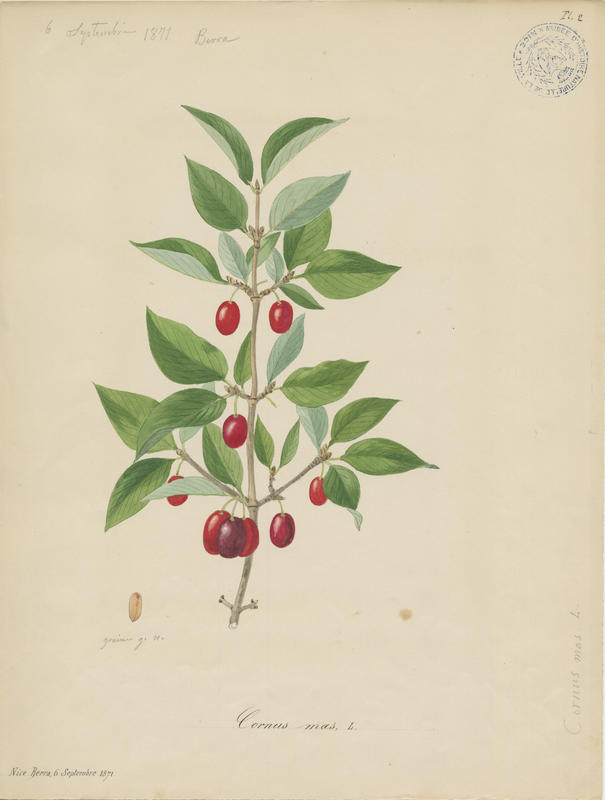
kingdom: Plantae
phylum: Tracheophyta
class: Magnoliopsida
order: Cornales
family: Cornaceae
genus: Cornus
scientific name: Cornus mas
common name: Cornelian-cherry
